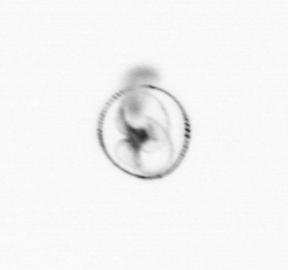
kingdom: Chromista
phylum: Myzozoa
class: Dinophyceae
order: Noctilucales
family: Noctilucaceae
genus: Noctiluca
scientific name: Noctiluca scintillans
